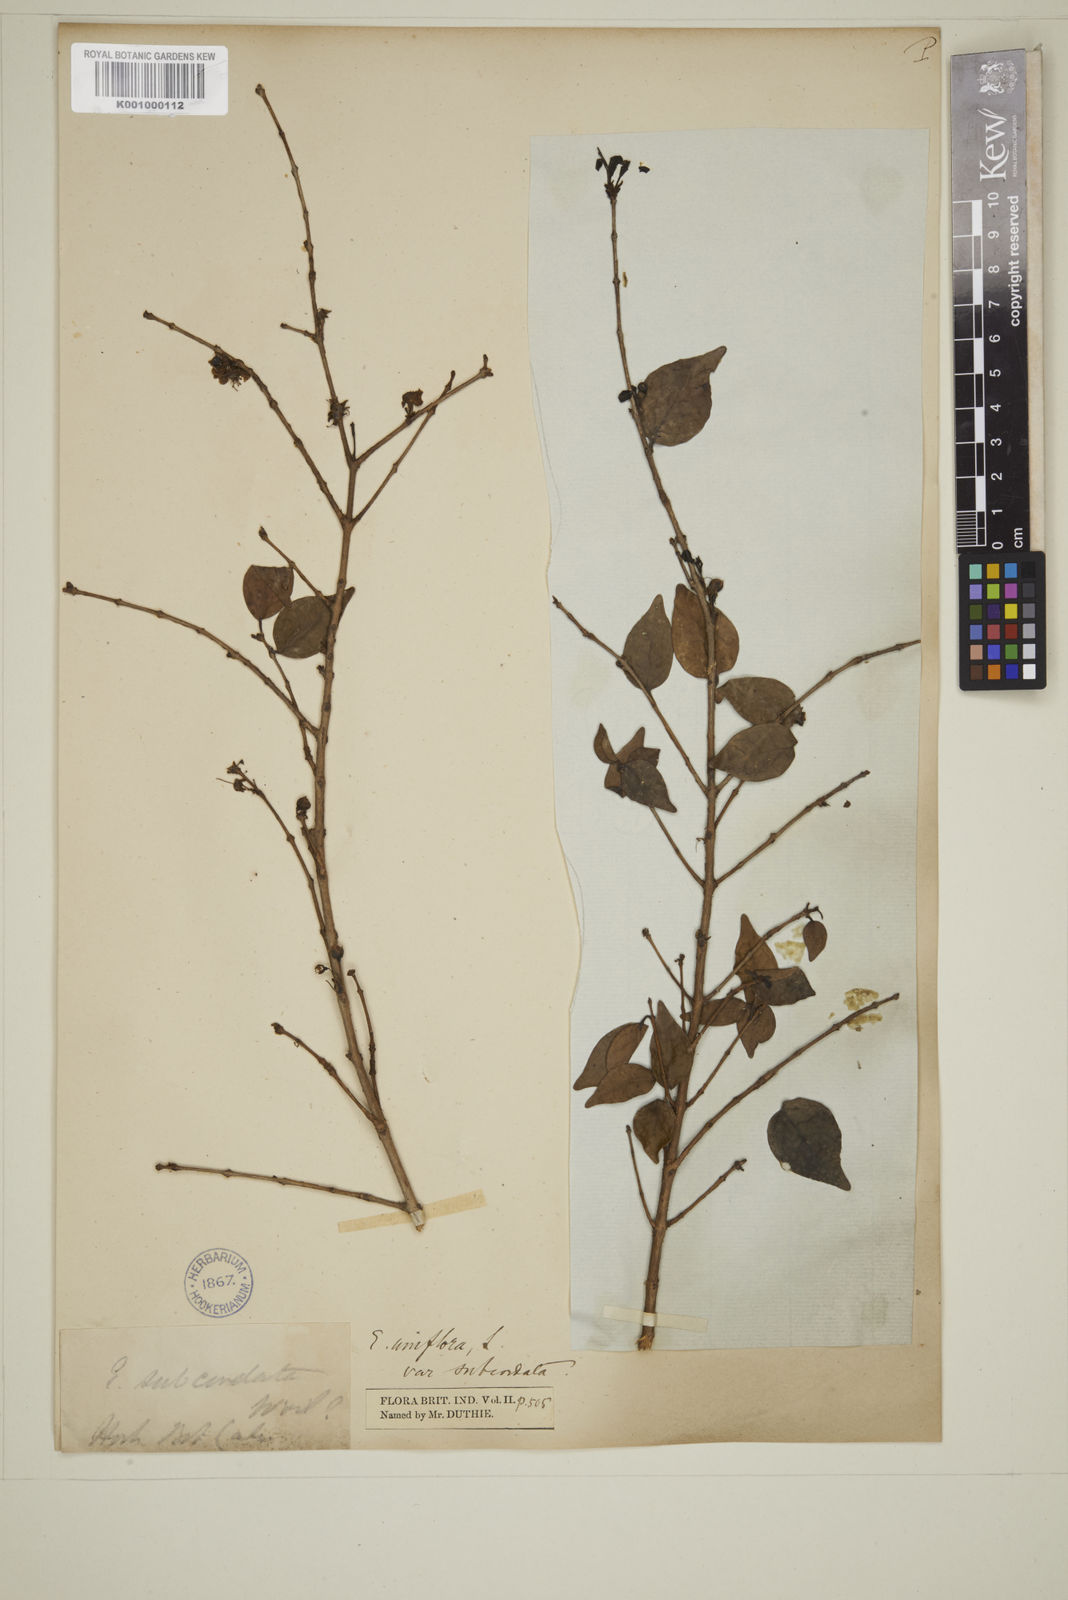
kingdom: Plantae
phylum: Tracheophyta
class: Magnoliopsida
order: Myrtales
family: Myrtaceae
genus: Eugenia
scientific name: Eugenia uniflora
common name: Surinam cherry
